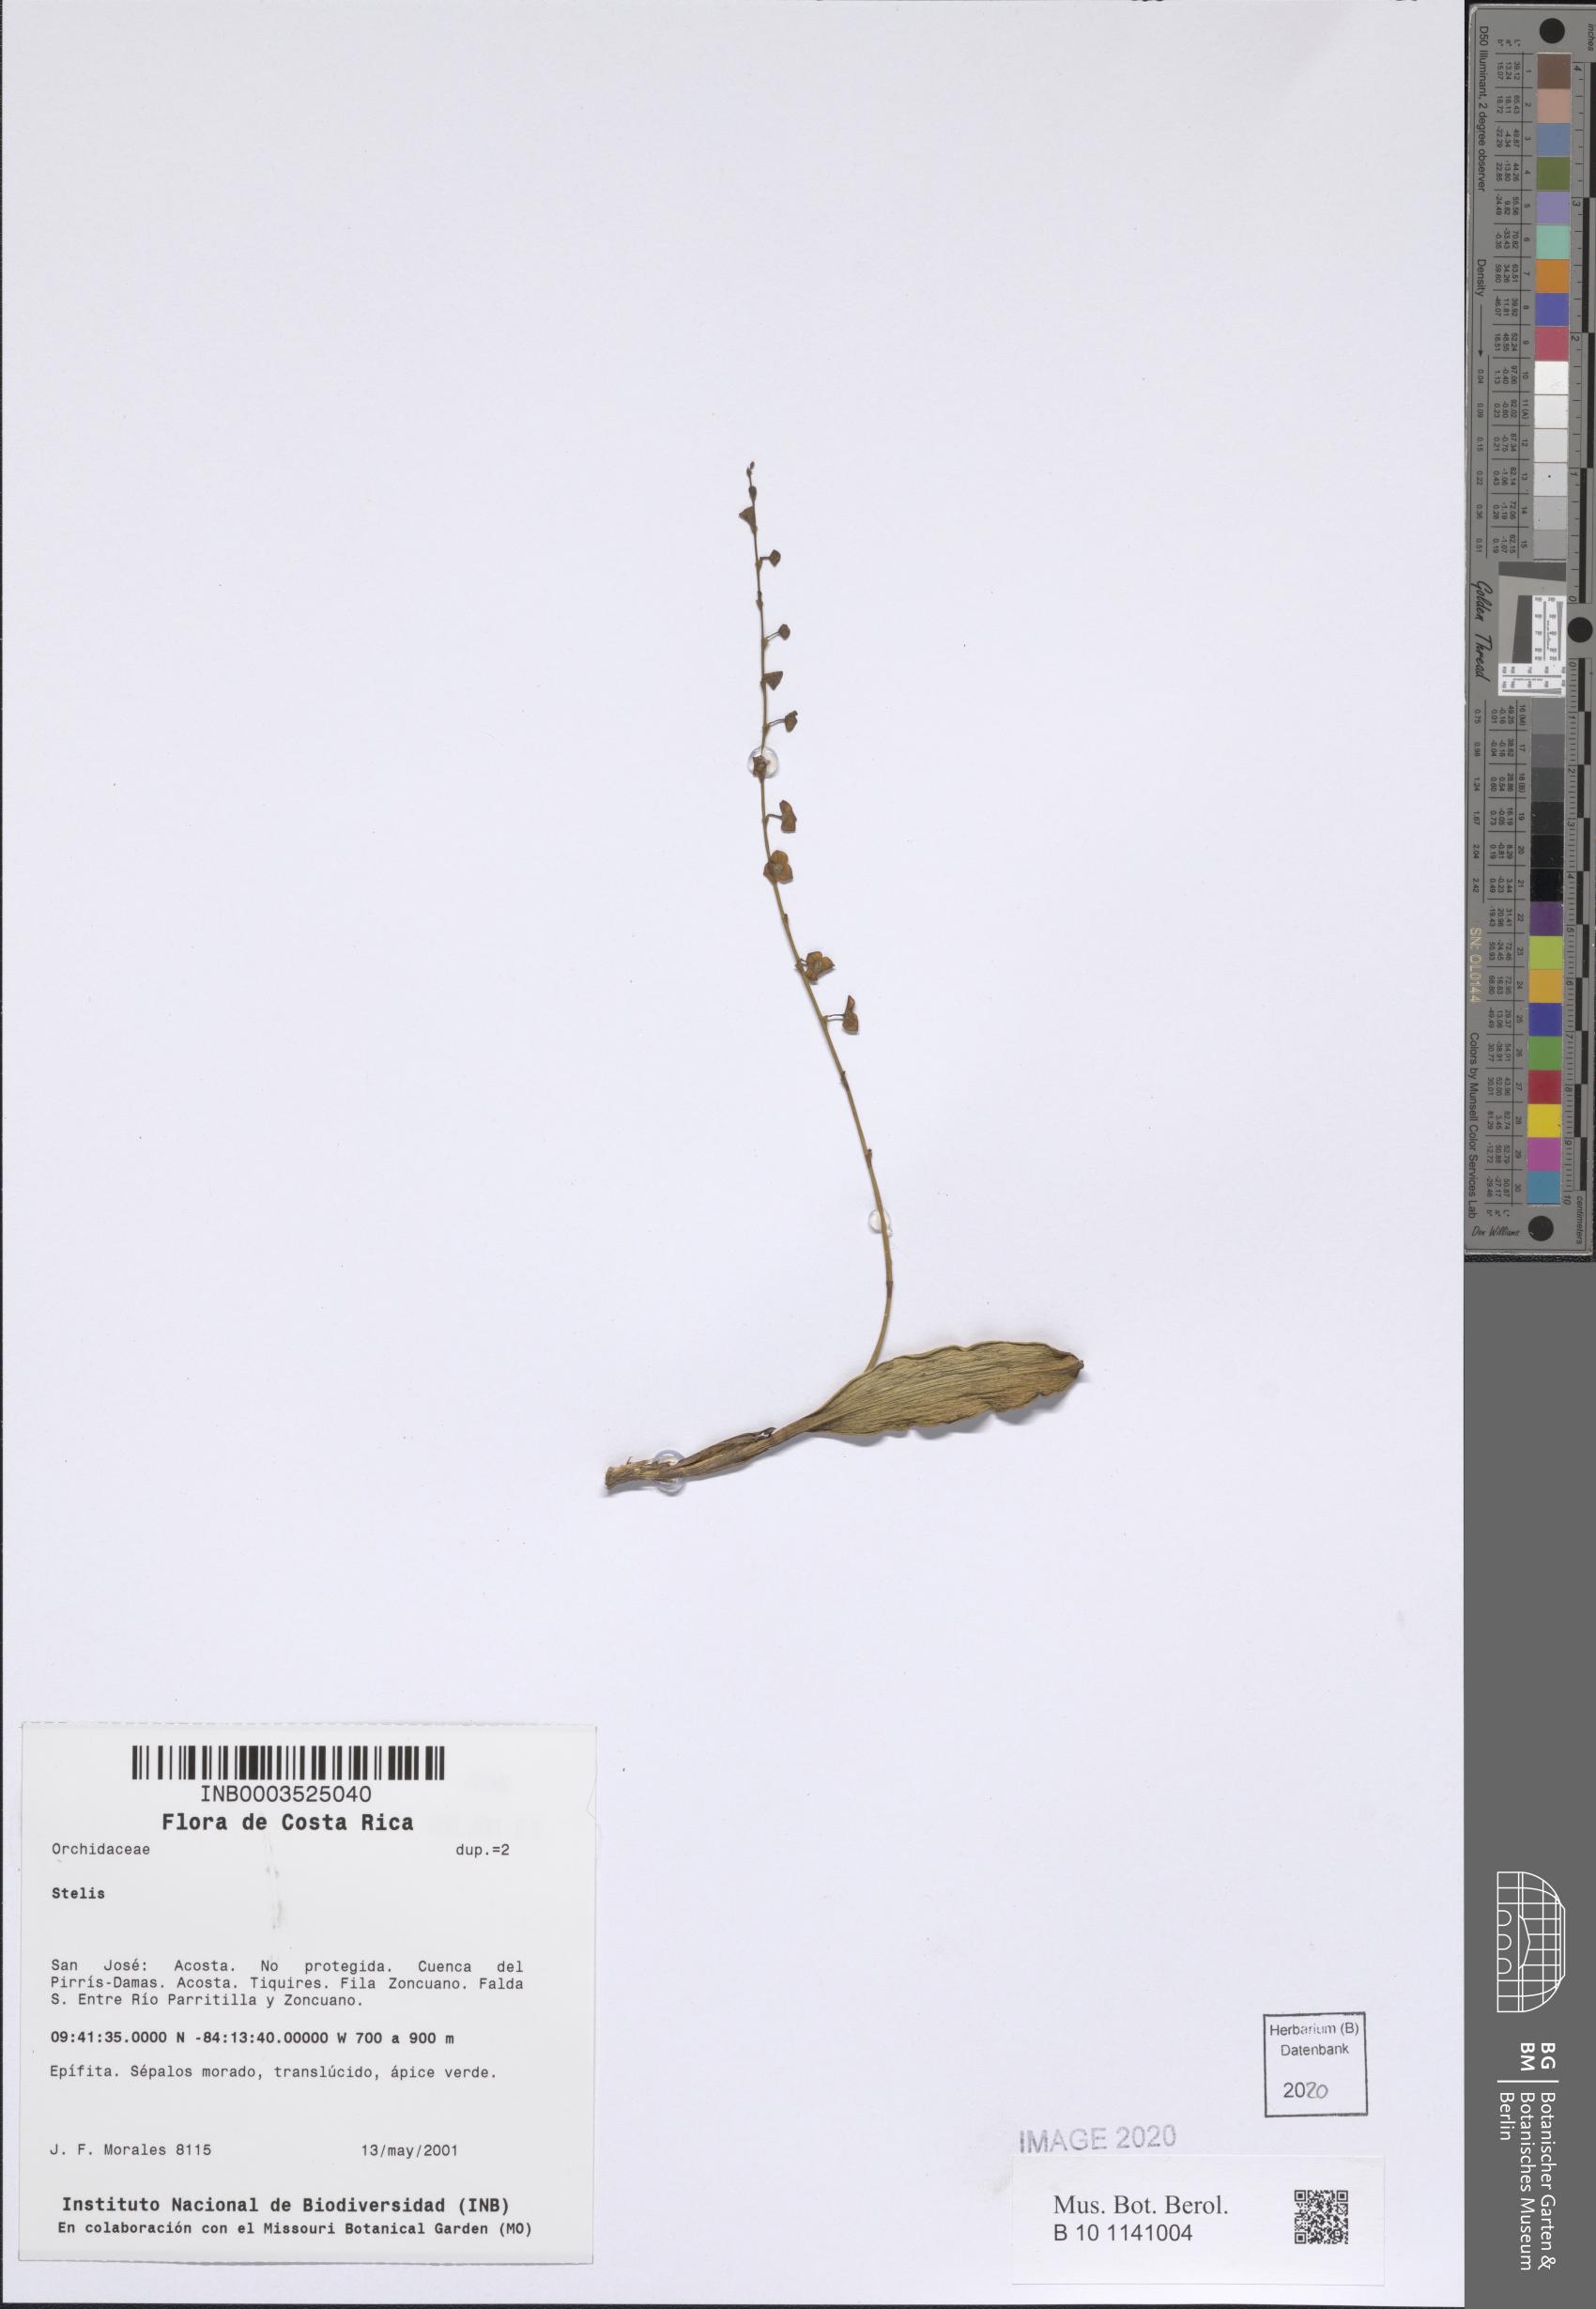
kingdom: Plantae
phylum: Tracheophyta
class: Liliopsida
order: Asparagales
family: Orchidaceae
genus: Stelis
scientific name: Stelis
